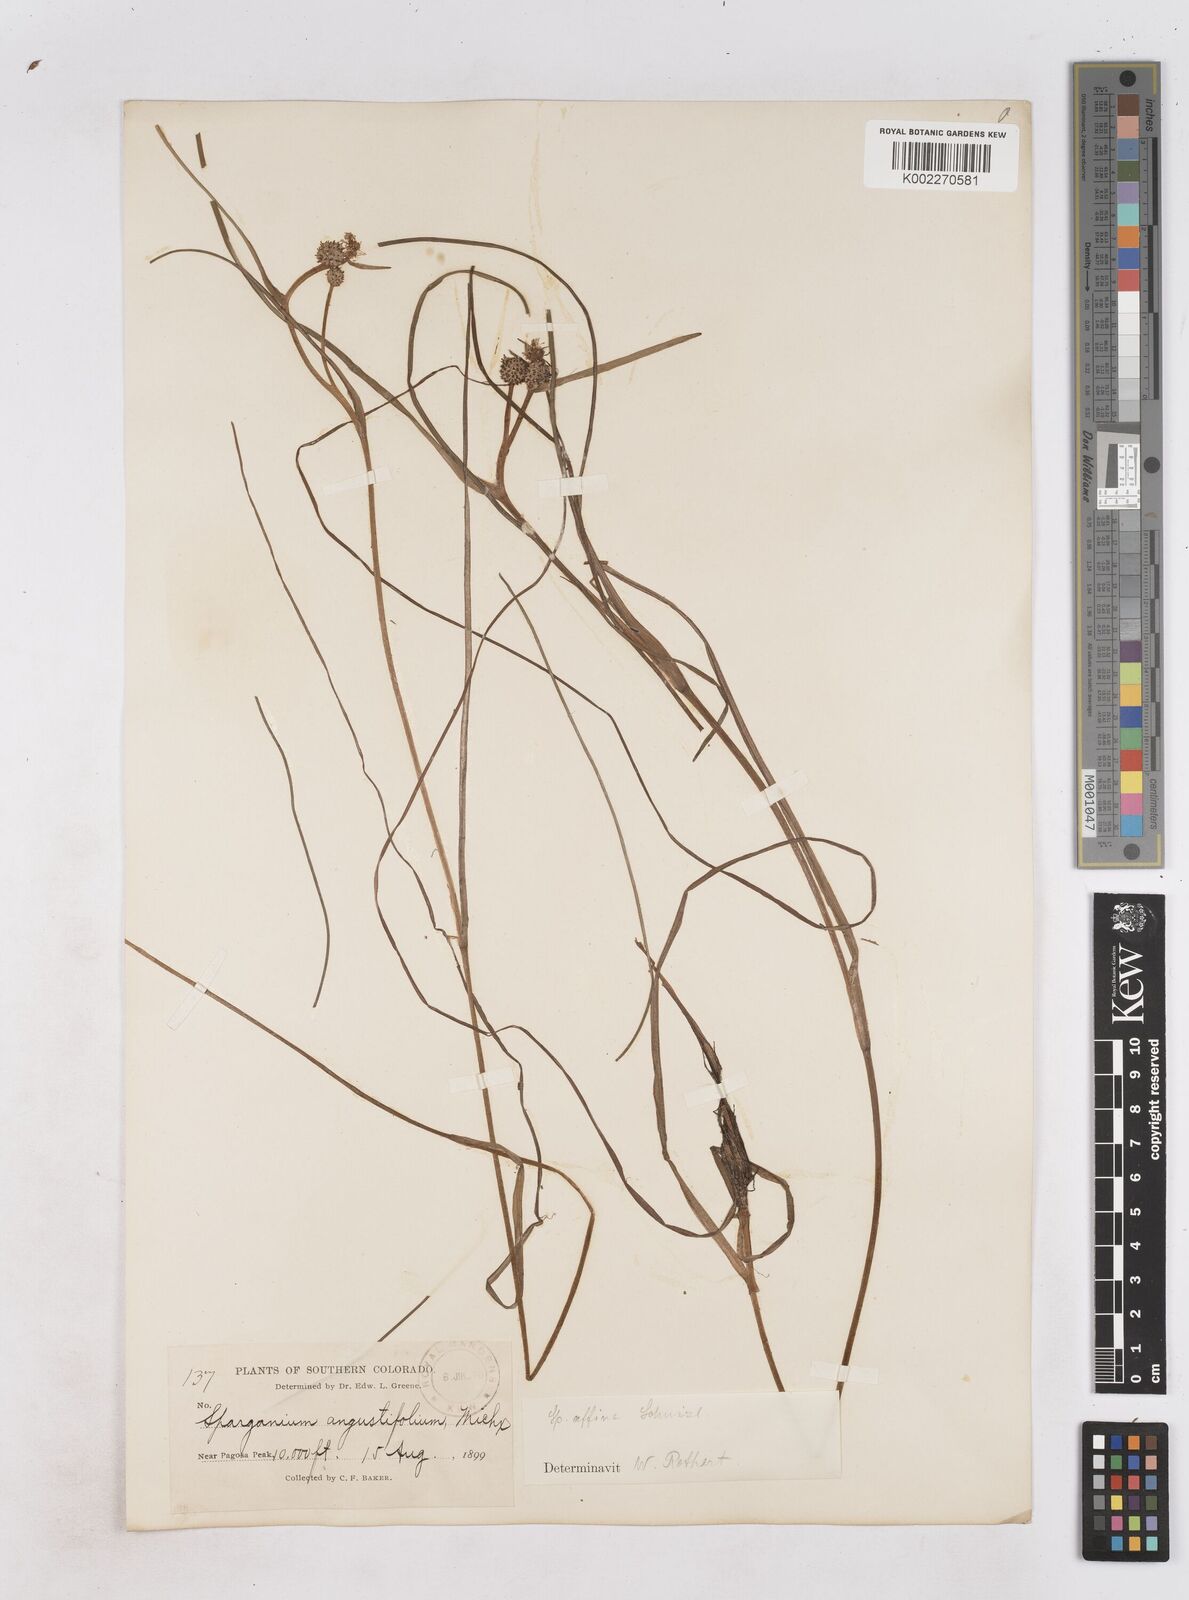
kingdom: Plantae
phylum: Tracheophyta
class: Liliopsida
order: Poales
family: Typhaceae
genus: Sparganium
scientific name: Sparganium angustifolium
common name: Floating bur-reed
